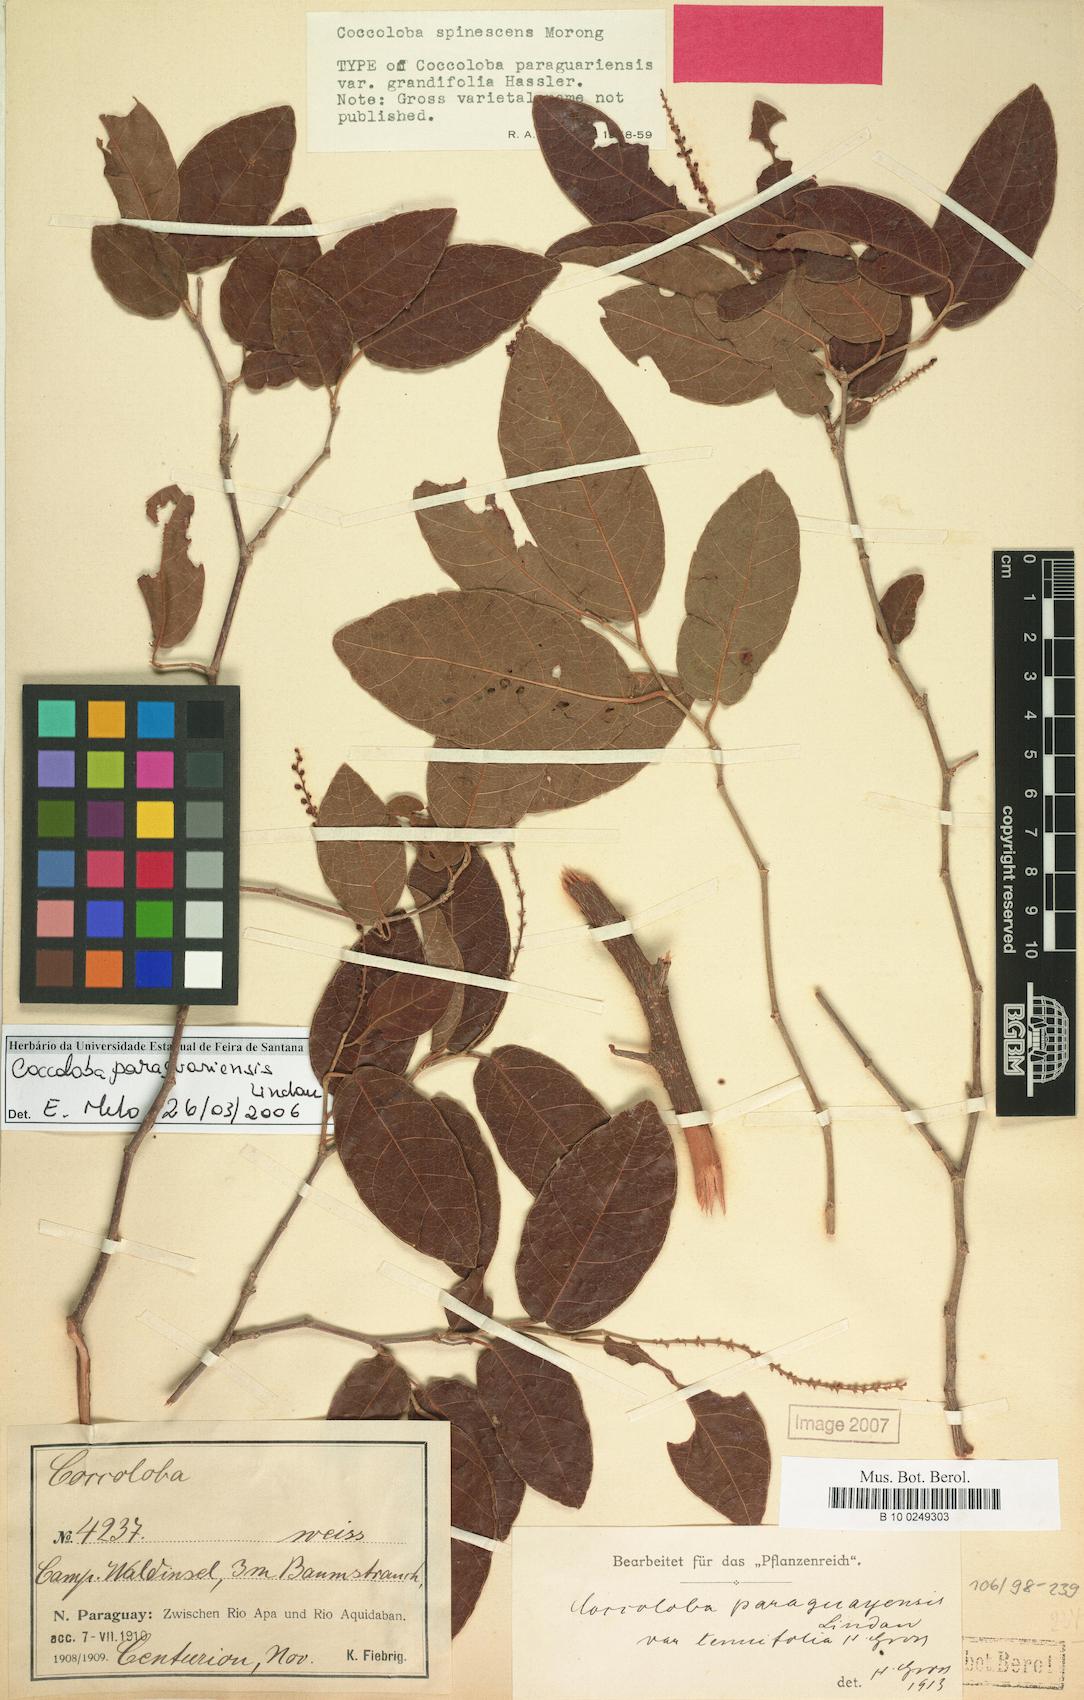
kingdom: Plantae
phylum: Tracheophyta
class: Magnoliopsida
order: Caryophyllales
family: Polygonaceae
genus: Coccoloba
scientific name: Coccoloba paraguariensis
